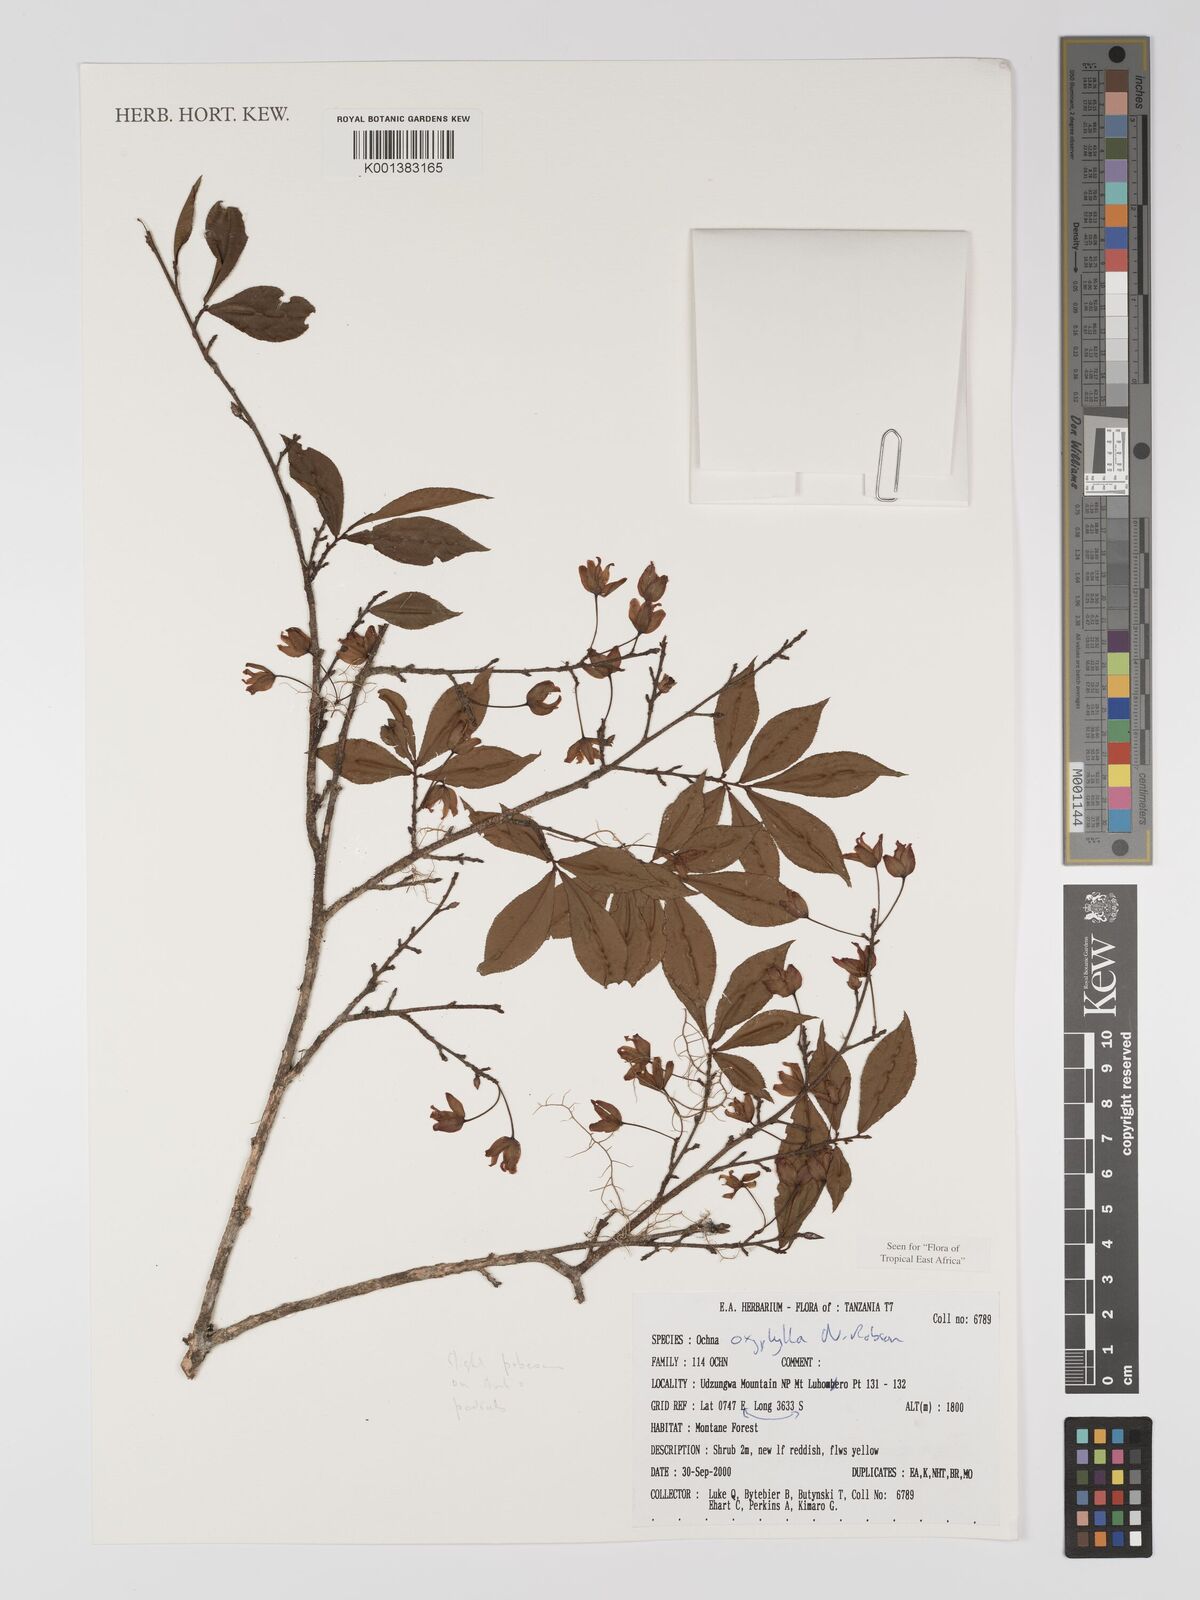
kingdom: Plantae
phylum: Tracheophyta
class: Magnoliopsida
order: Malpighiales
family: Ochnaceae
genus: Ochna
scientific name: Ochna oxyphylla
